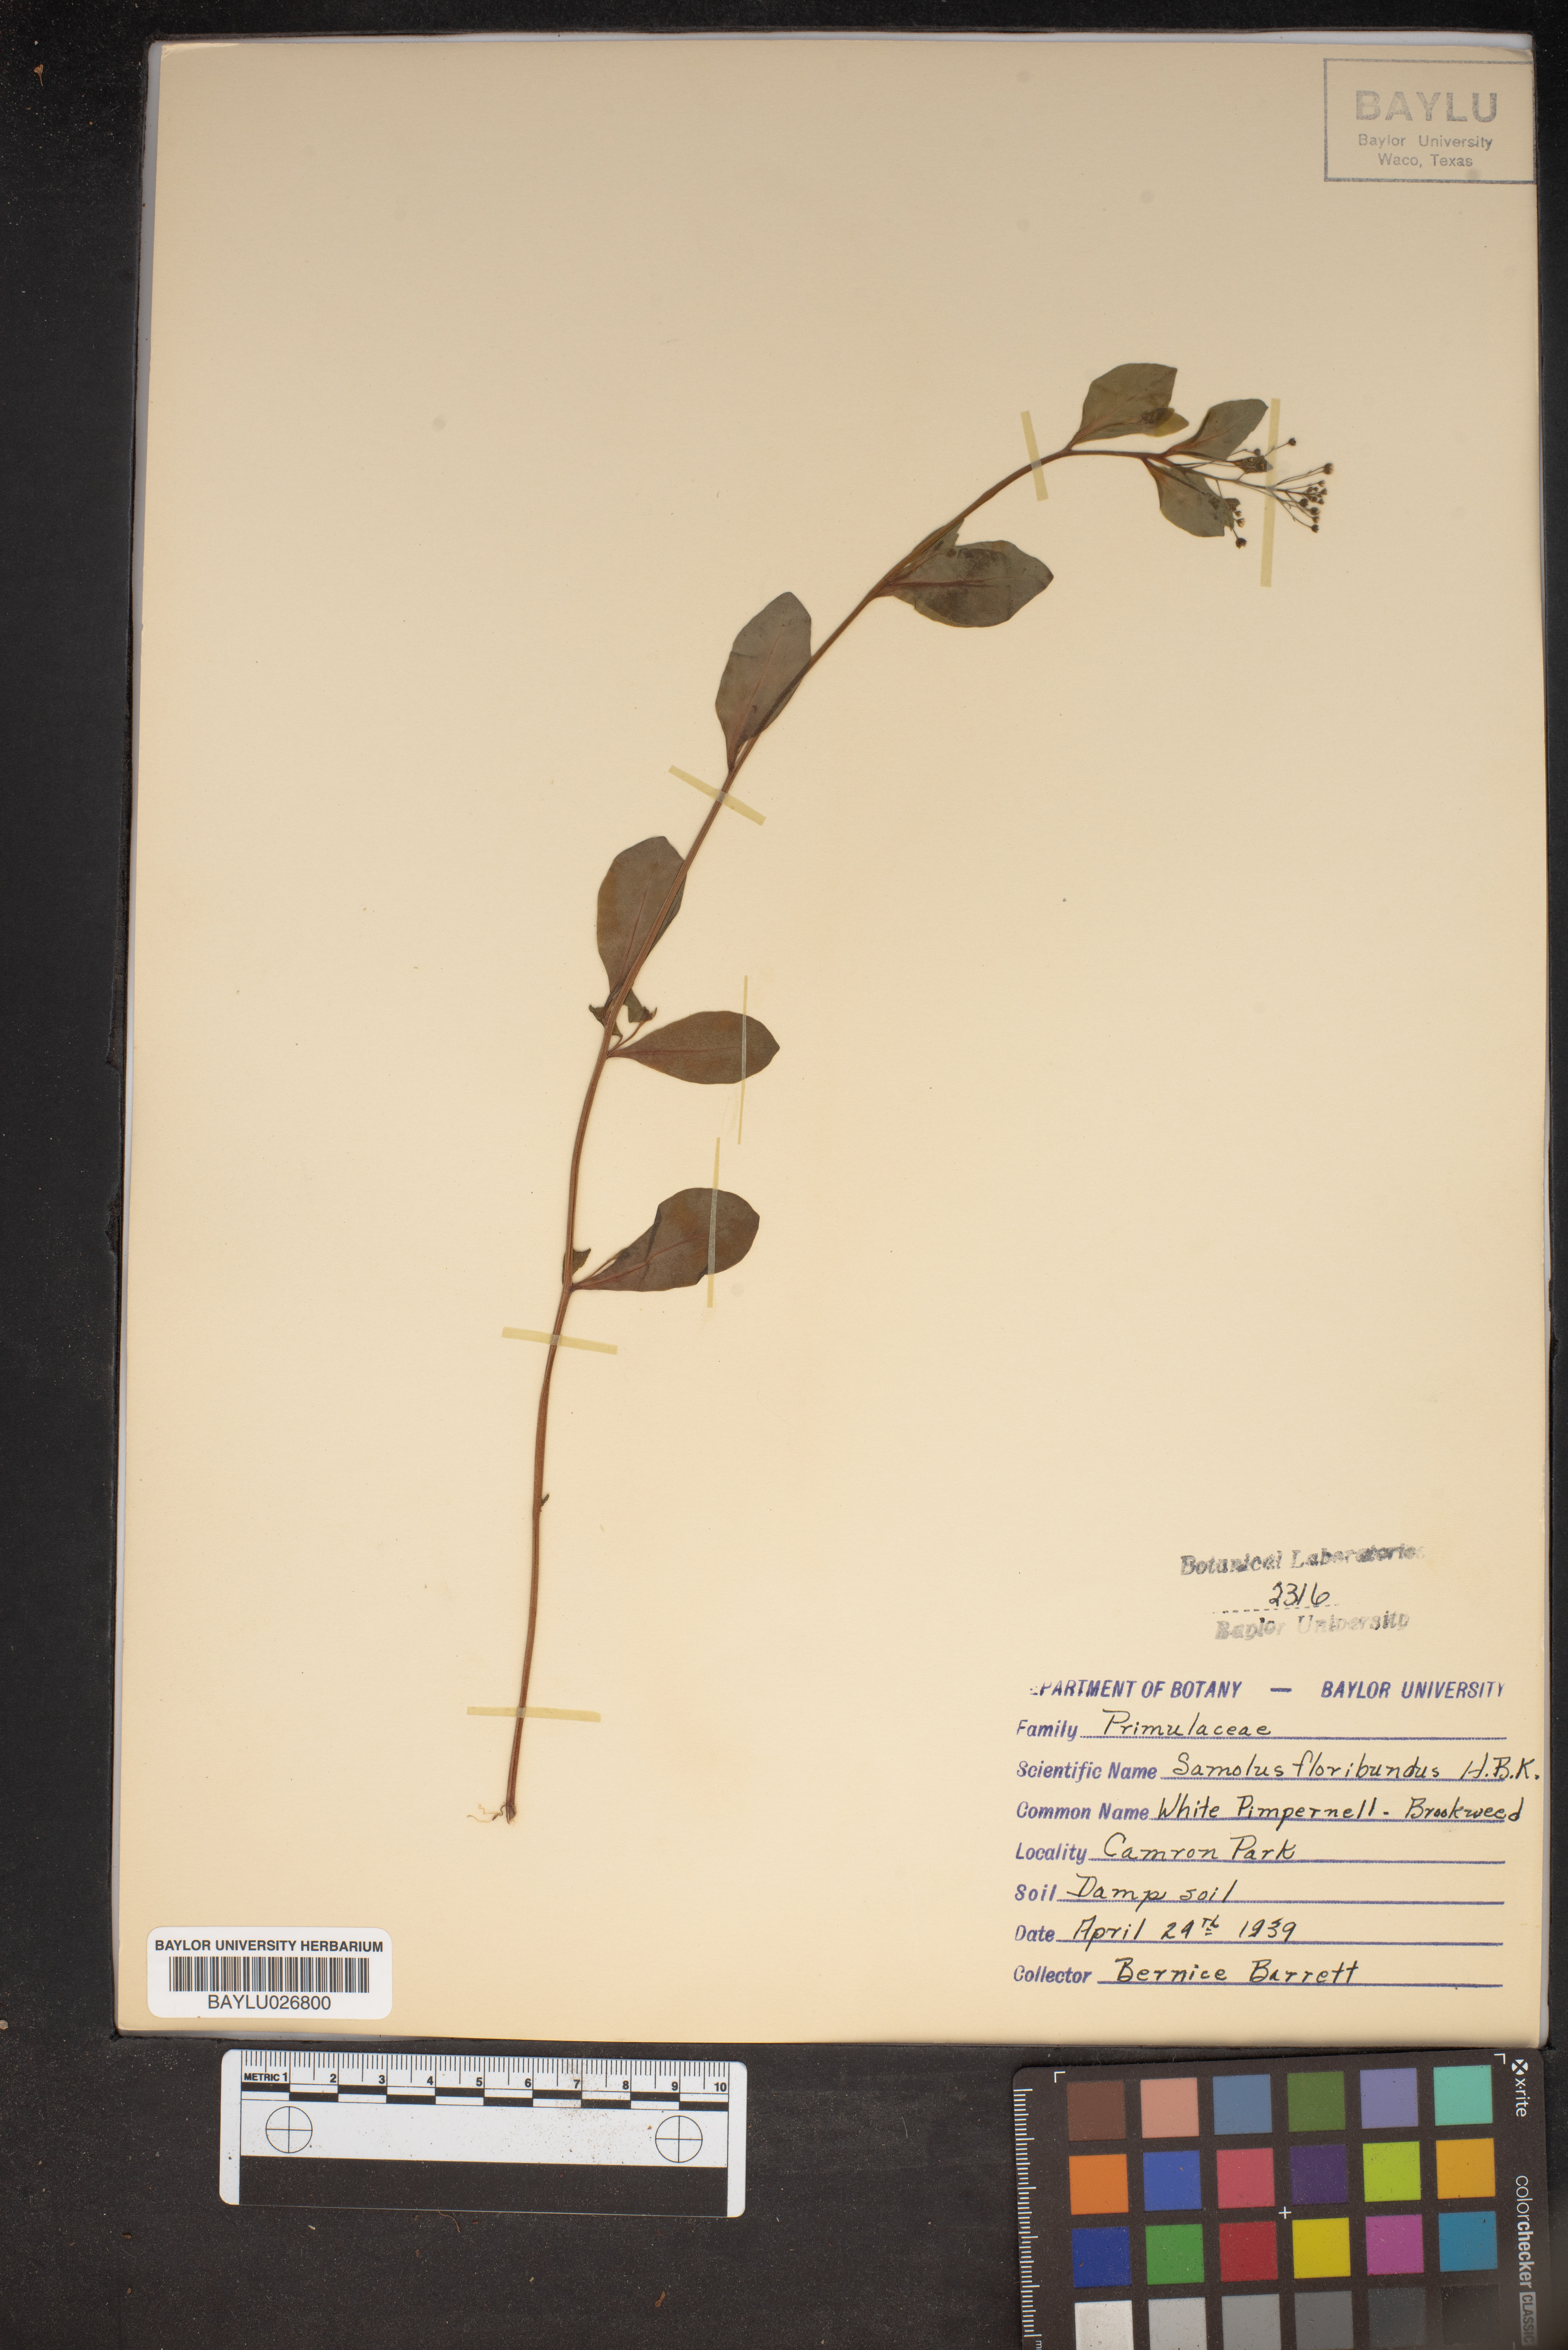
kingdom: Plantae
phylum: Tracheophyta
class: Magnoliopsida
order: Ericales
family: Primulaceae
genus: Samolus
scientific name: Samolus parviflorus
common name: False water pimpernel
